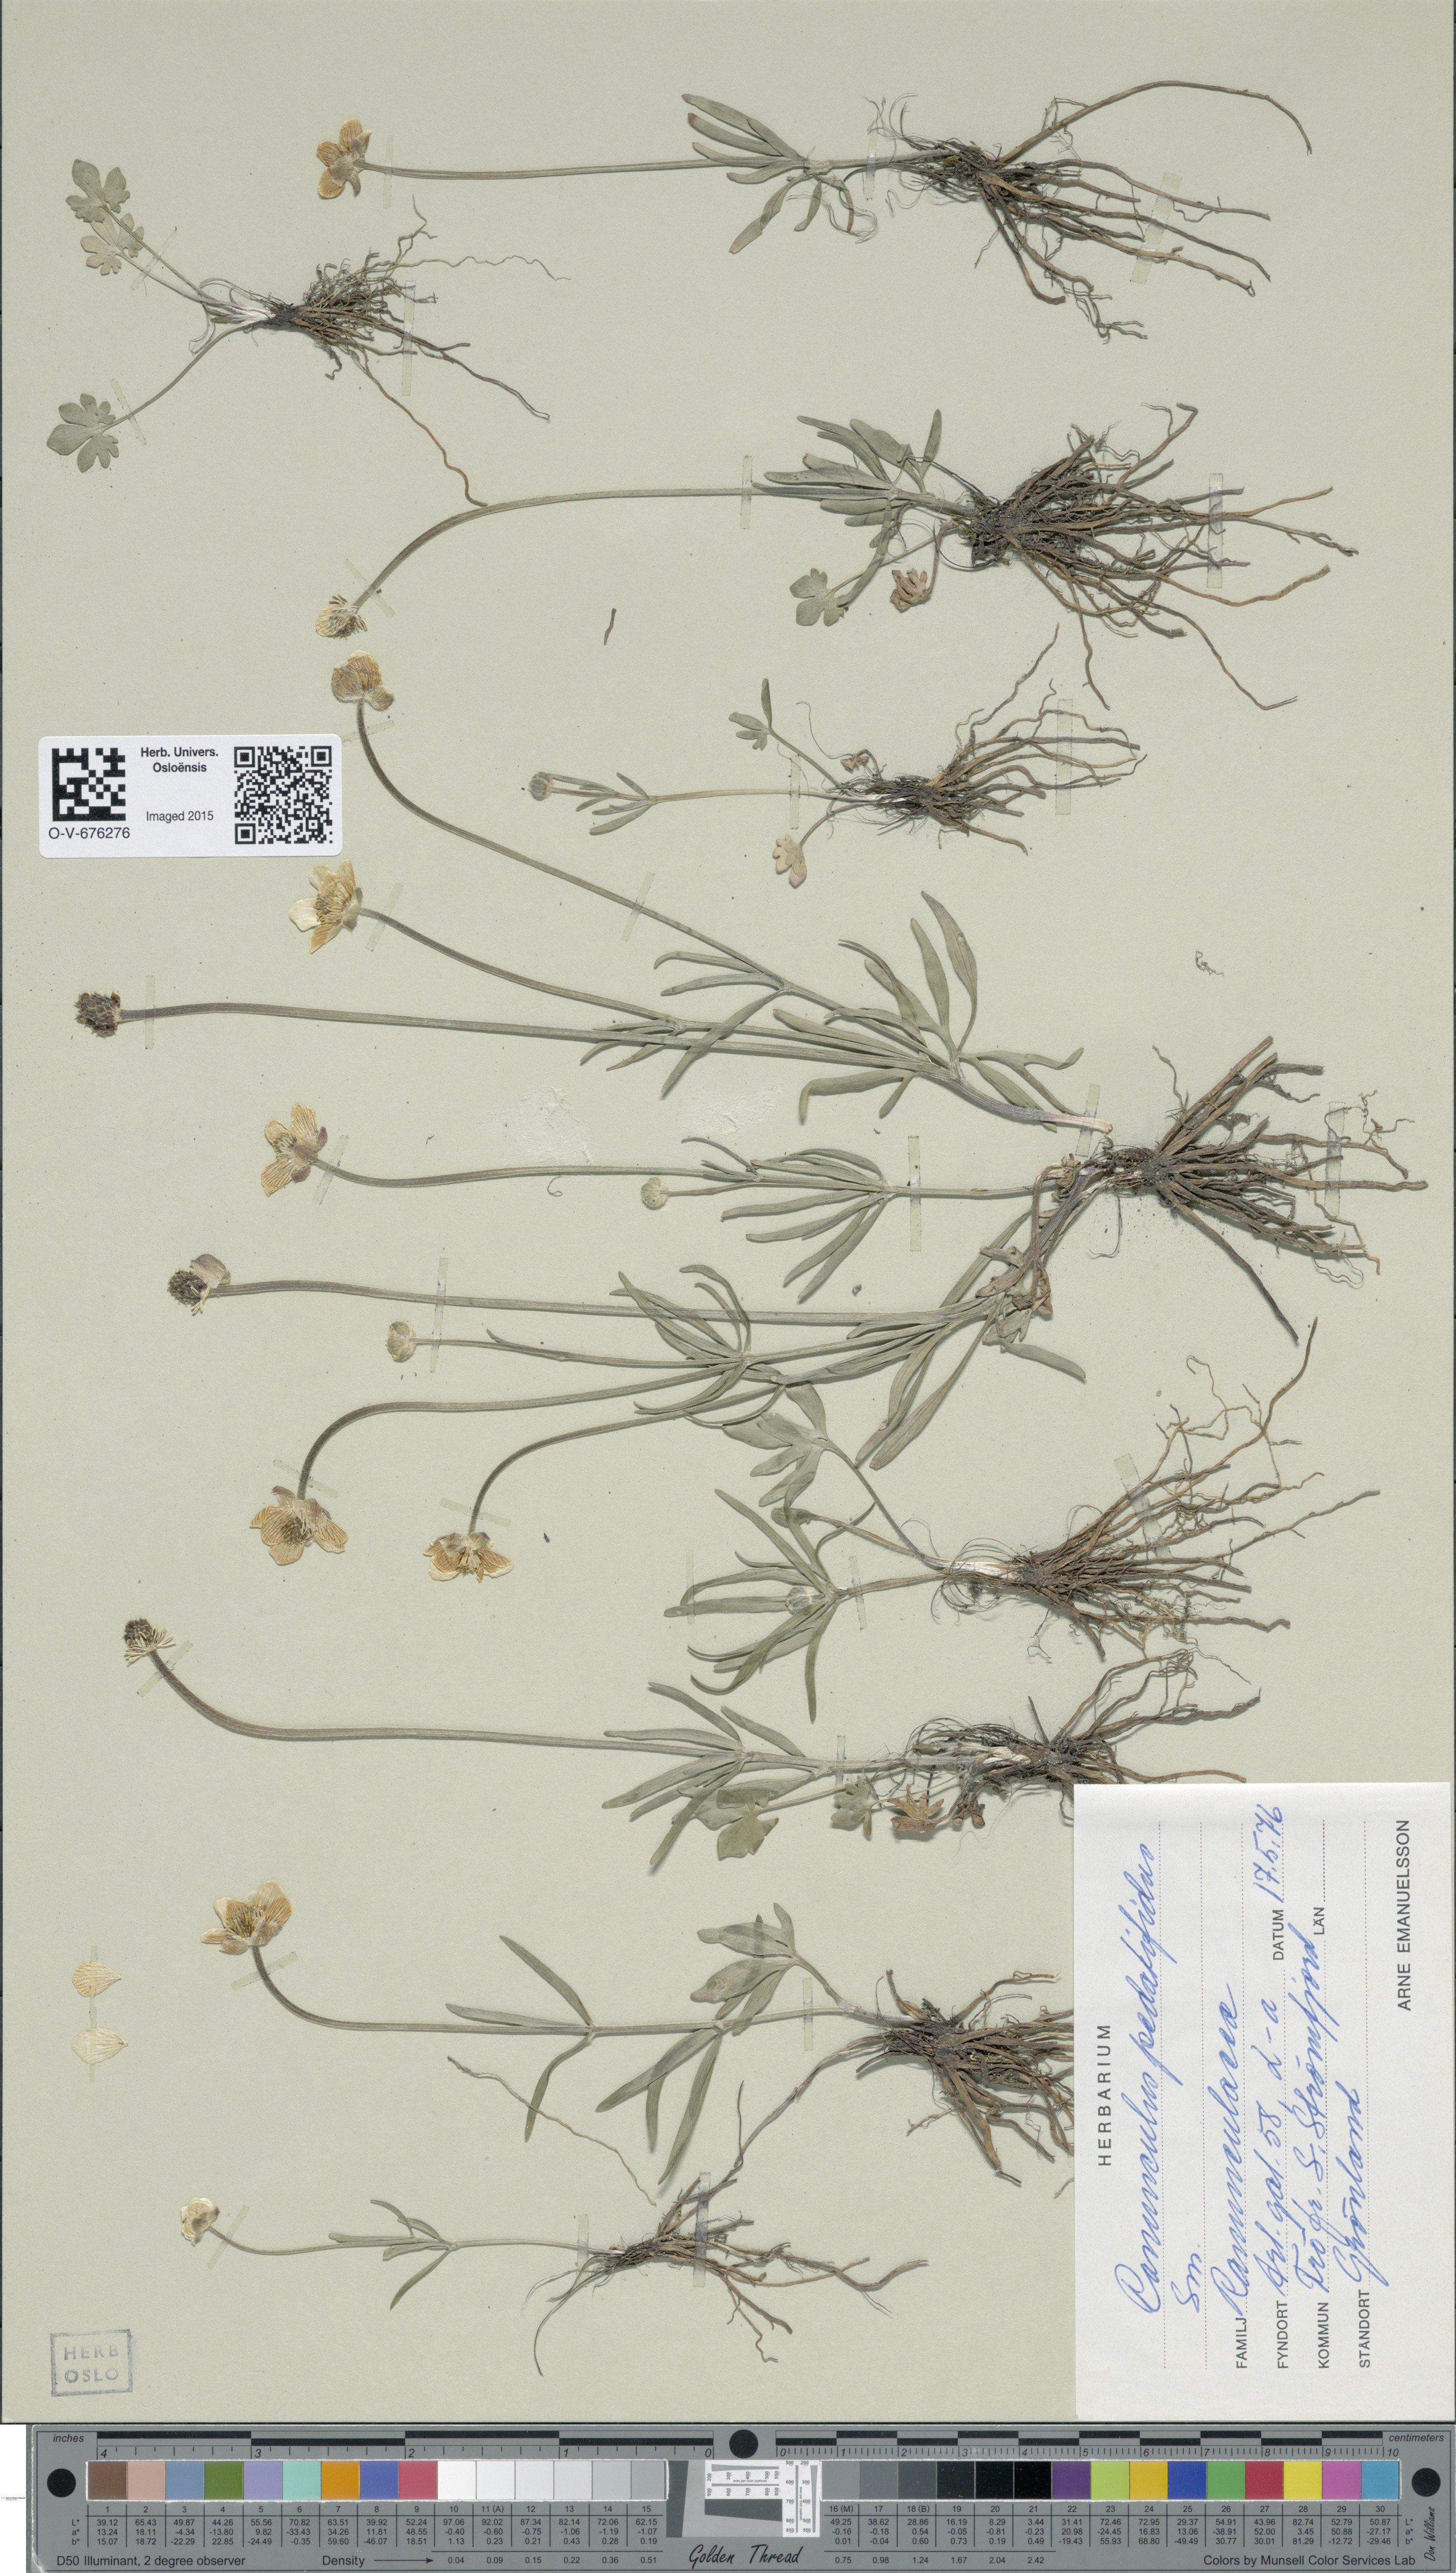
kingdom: Plantae
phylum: Tracheophyta
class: Magnoliopsida
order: Ranunculales
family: Ranunculaceae
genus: Ranunculus
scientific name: Ranunculus pedatifidus
